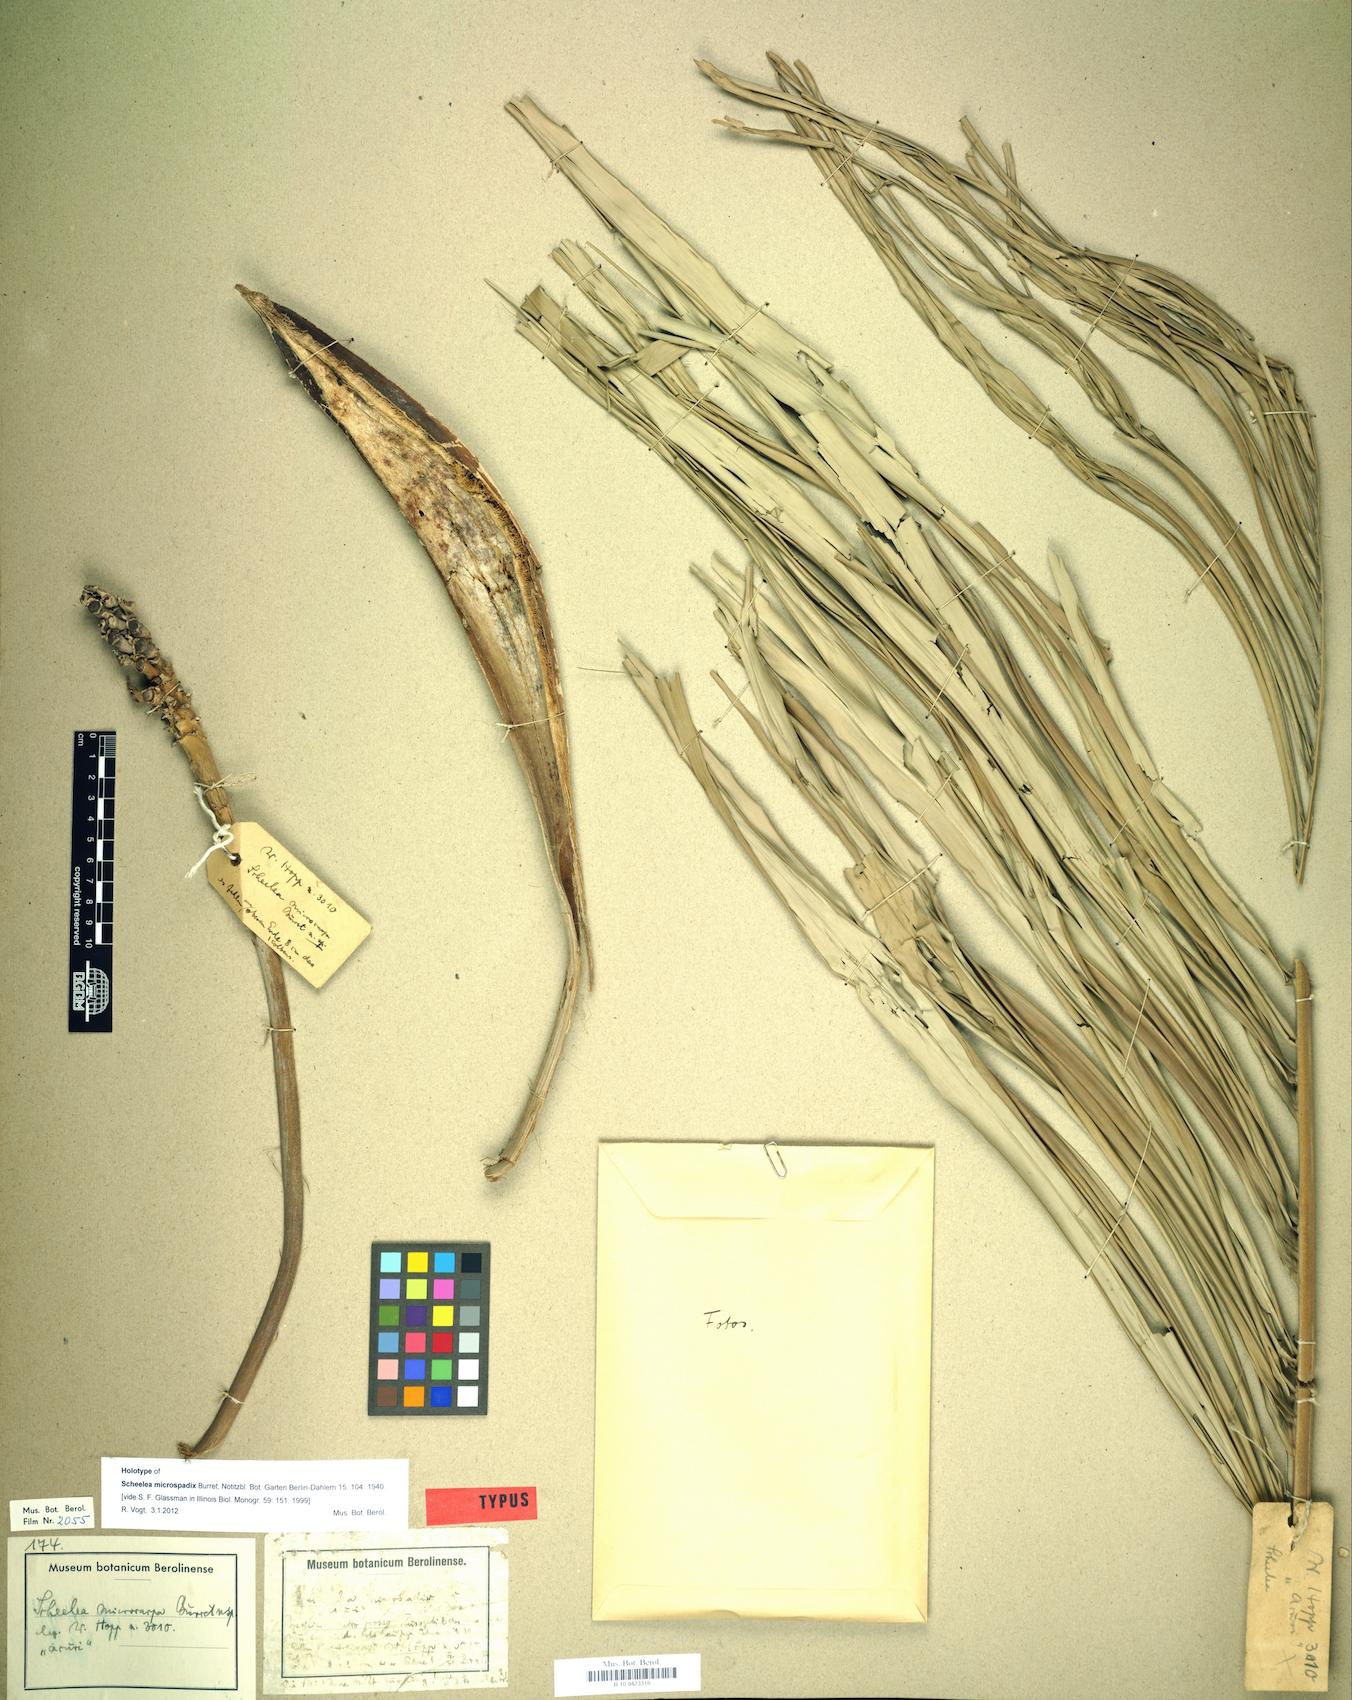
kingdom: Plantae
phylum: Tracheophyta
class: Liliopsida
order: Arecales
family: Arecaceae
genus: Attalea
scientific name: Attalea phalerata
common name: Urucuri palm
